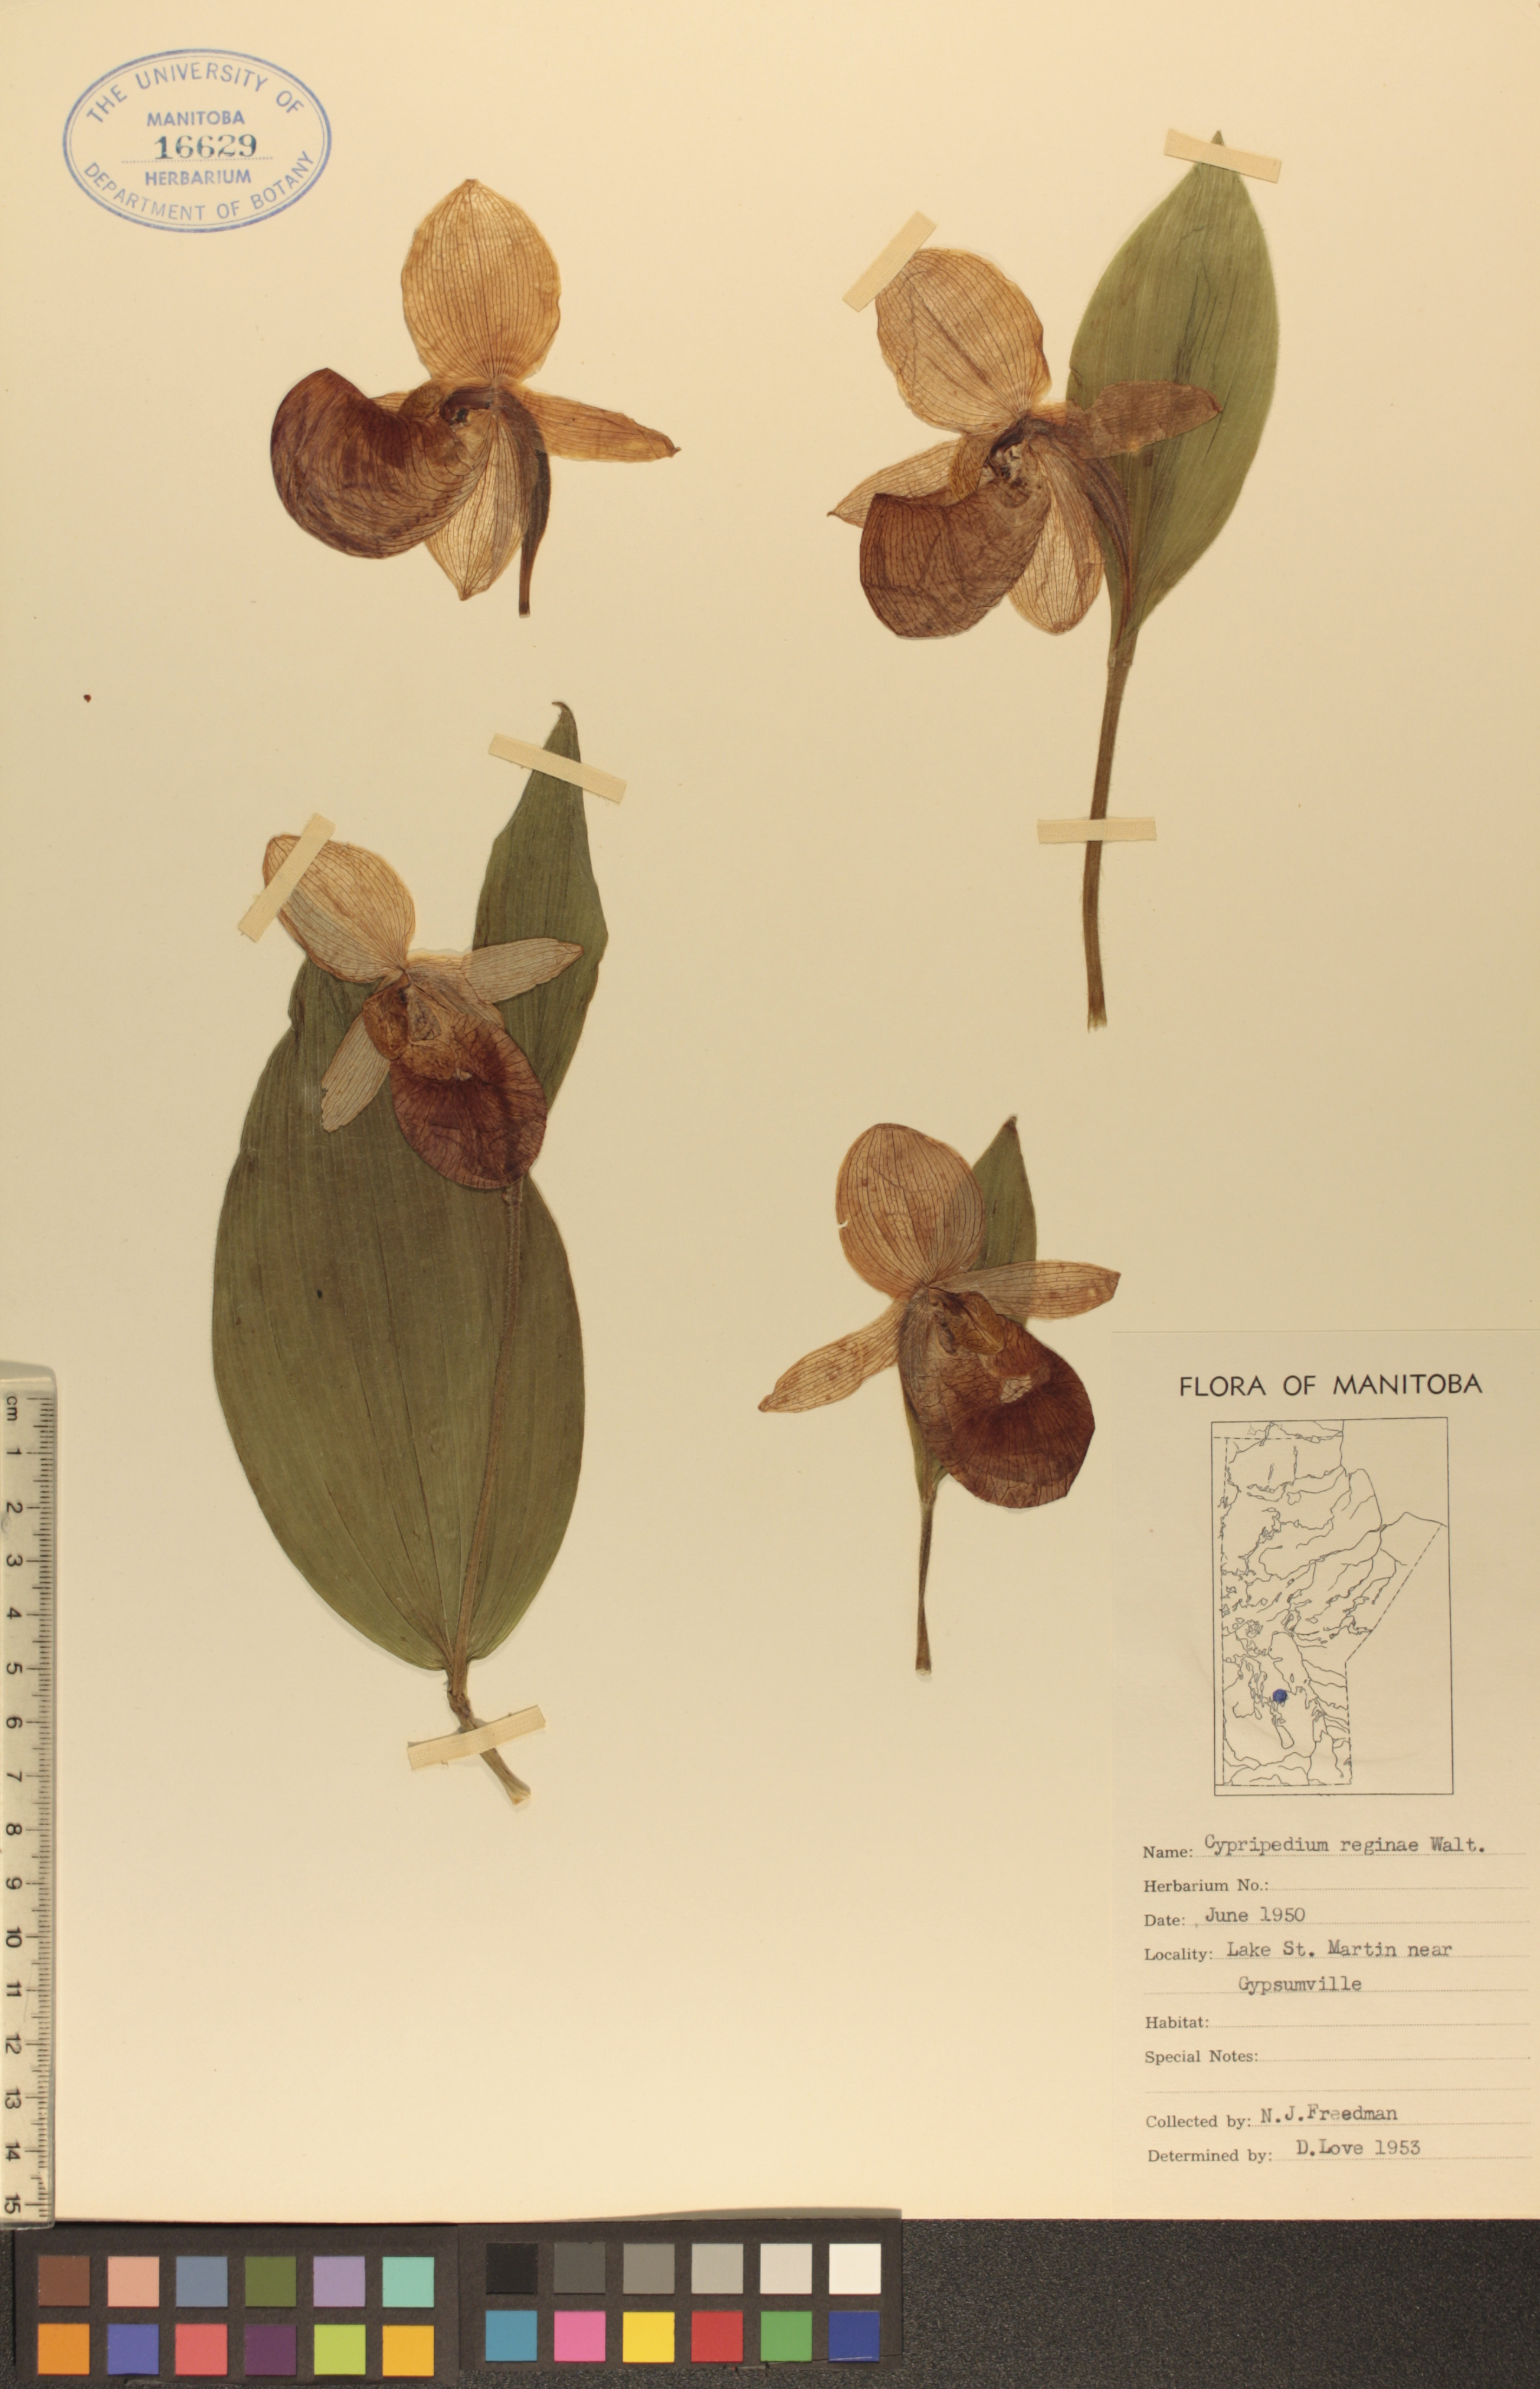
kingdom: Plantae
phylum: Tracheophyta
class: Liliopsida
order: Asparagales
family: Orchidaceae
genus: Cypripedium
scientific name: Cypripedium reginae
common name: Queen lady's-slipper
